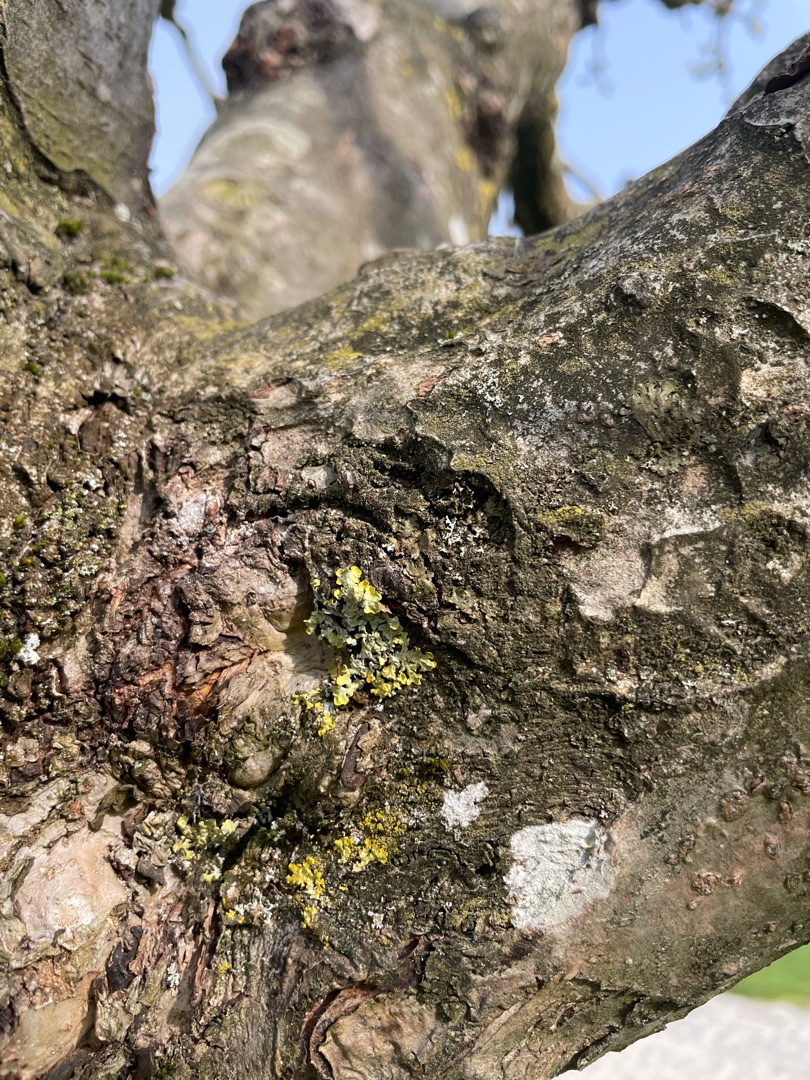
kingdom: Fungi
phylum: Ascomycota
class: Lecanoromycetes
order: Teloschistales
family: Teloschistaceae
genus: Xanthoria
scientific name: Xanthoria parietina
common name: Almindelig væggelav
